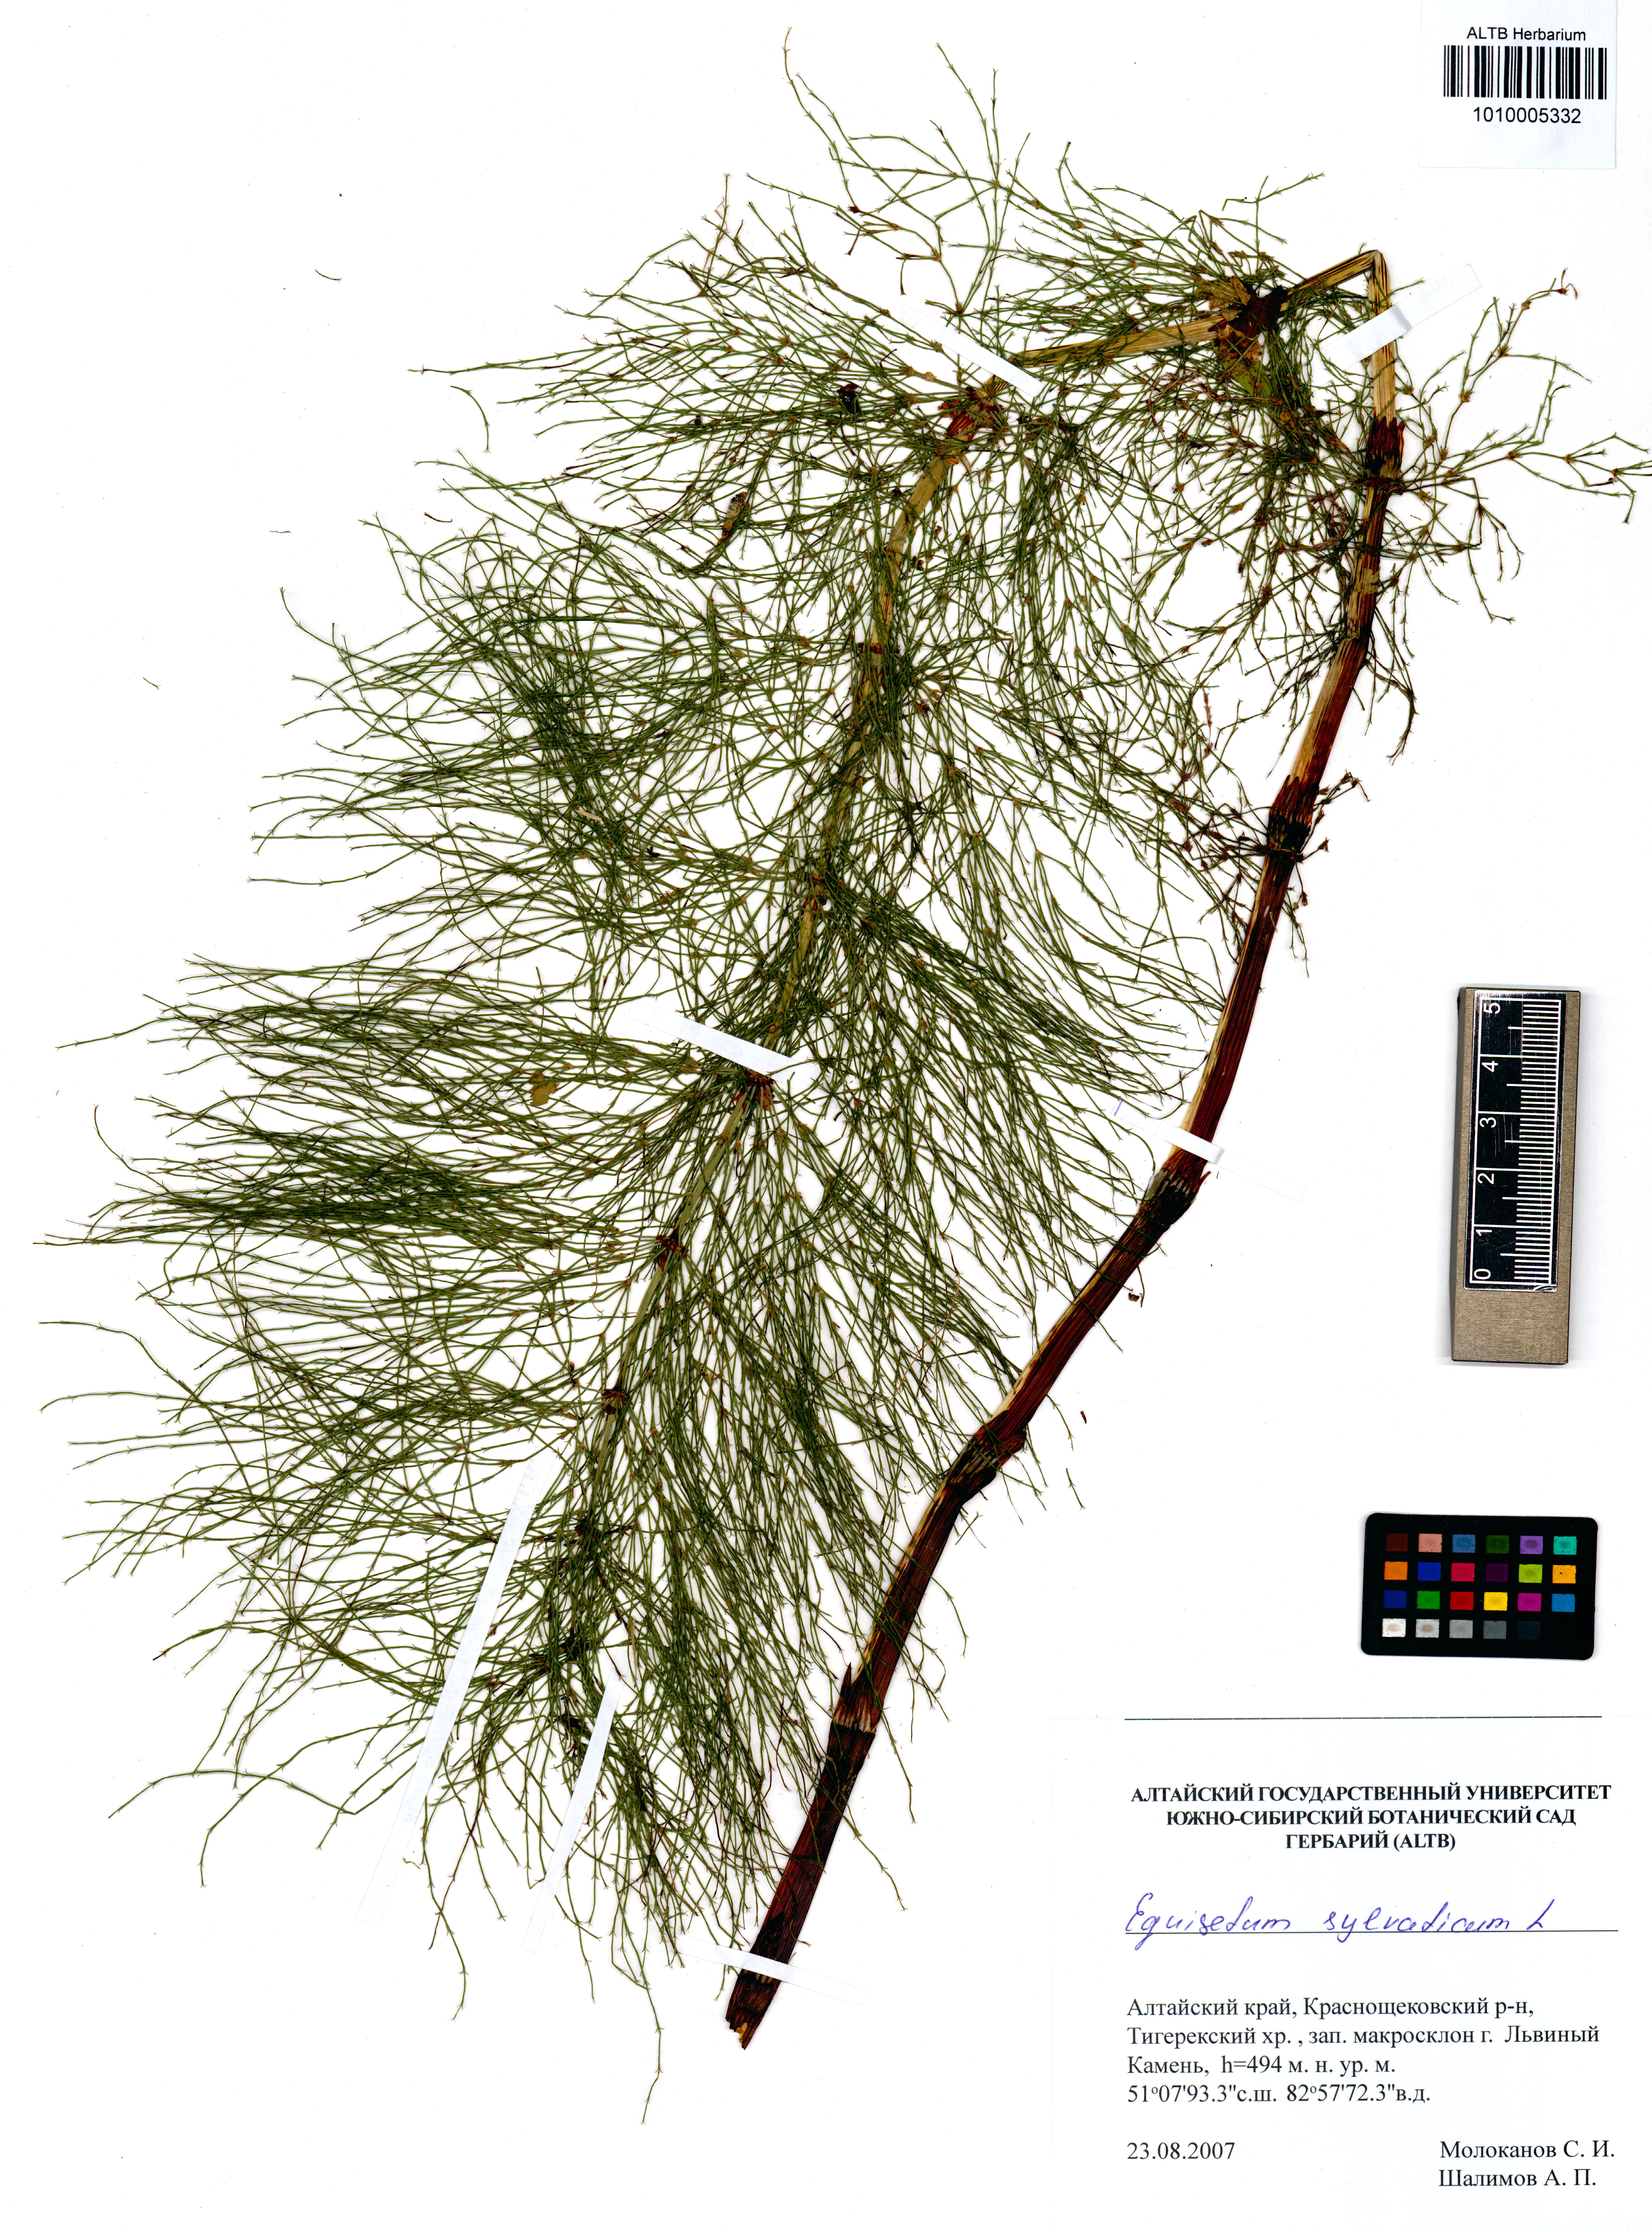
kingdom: Plantae
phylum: Tracheophyta
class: Polypodiopsida
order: Equisetales
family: Equisetaceae
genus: Equisetum
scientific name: Equisetum sylvaticum
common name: Wood horsetail
